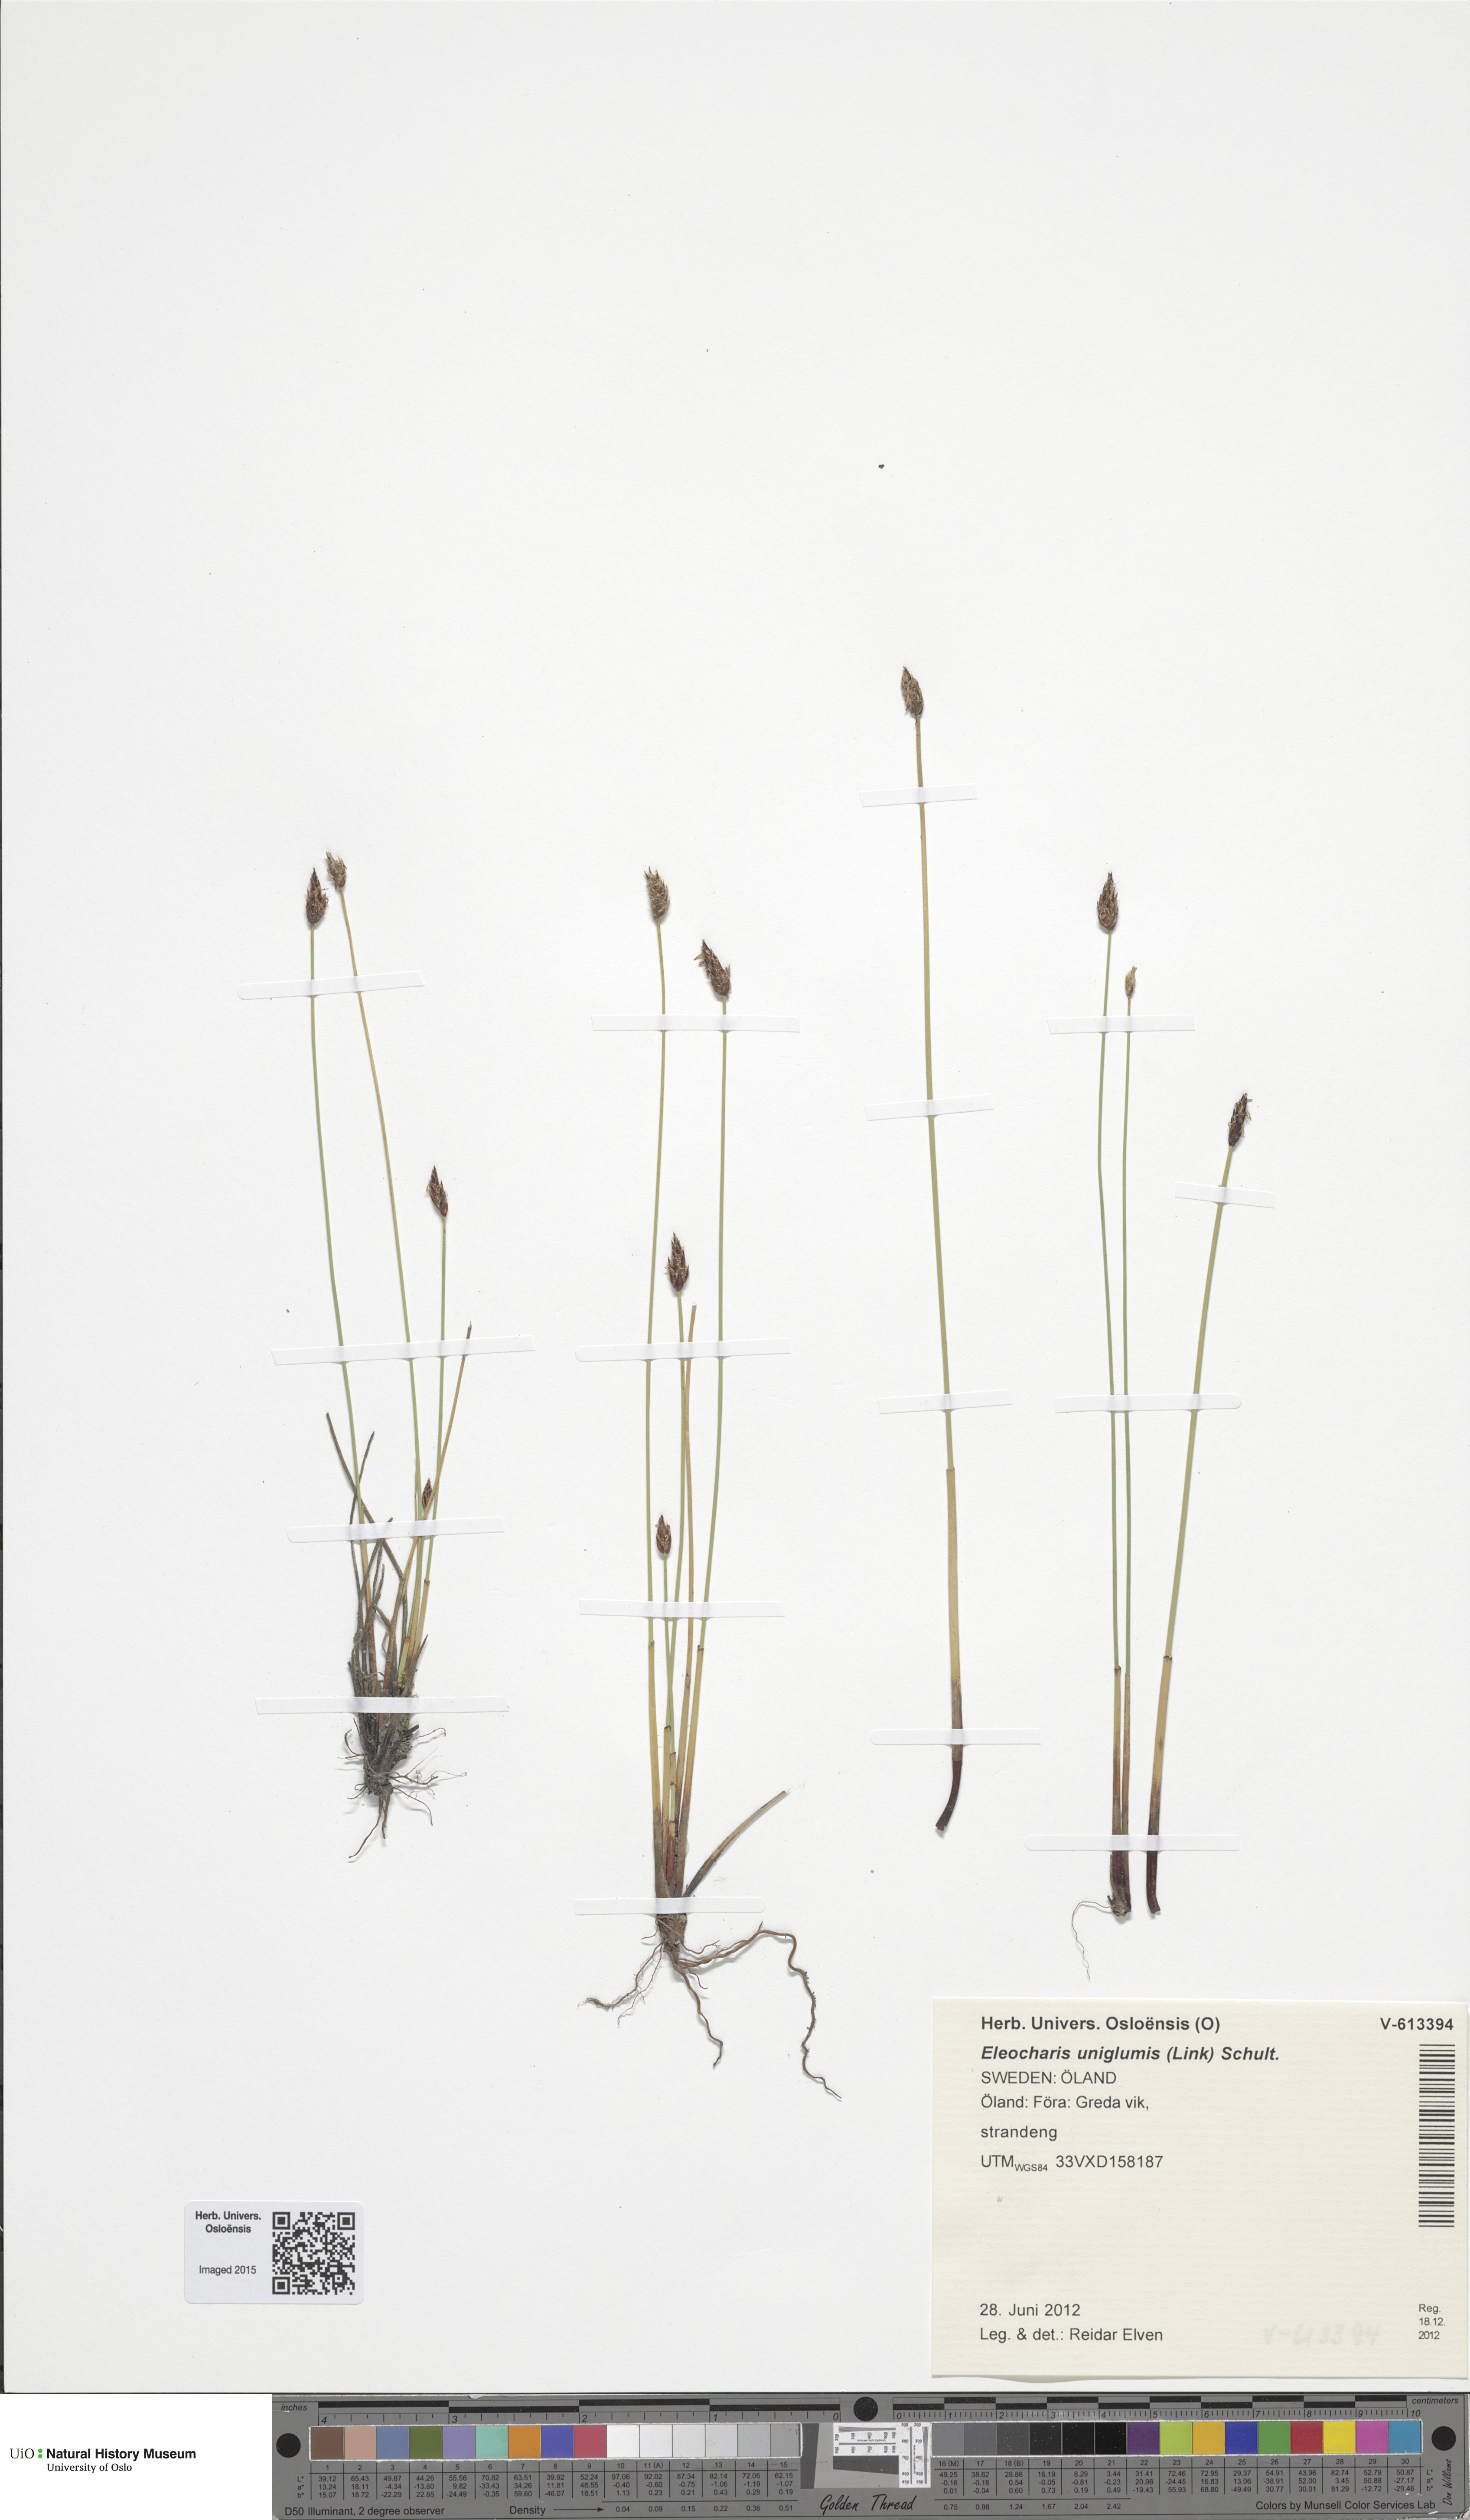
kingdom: Plantae
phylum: Tracheophyta
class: Liliopsida
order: Poales
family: Cyperaceae
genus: Eleocharis
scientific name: Eleocharis uniglumis
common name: Slender spike-rush
